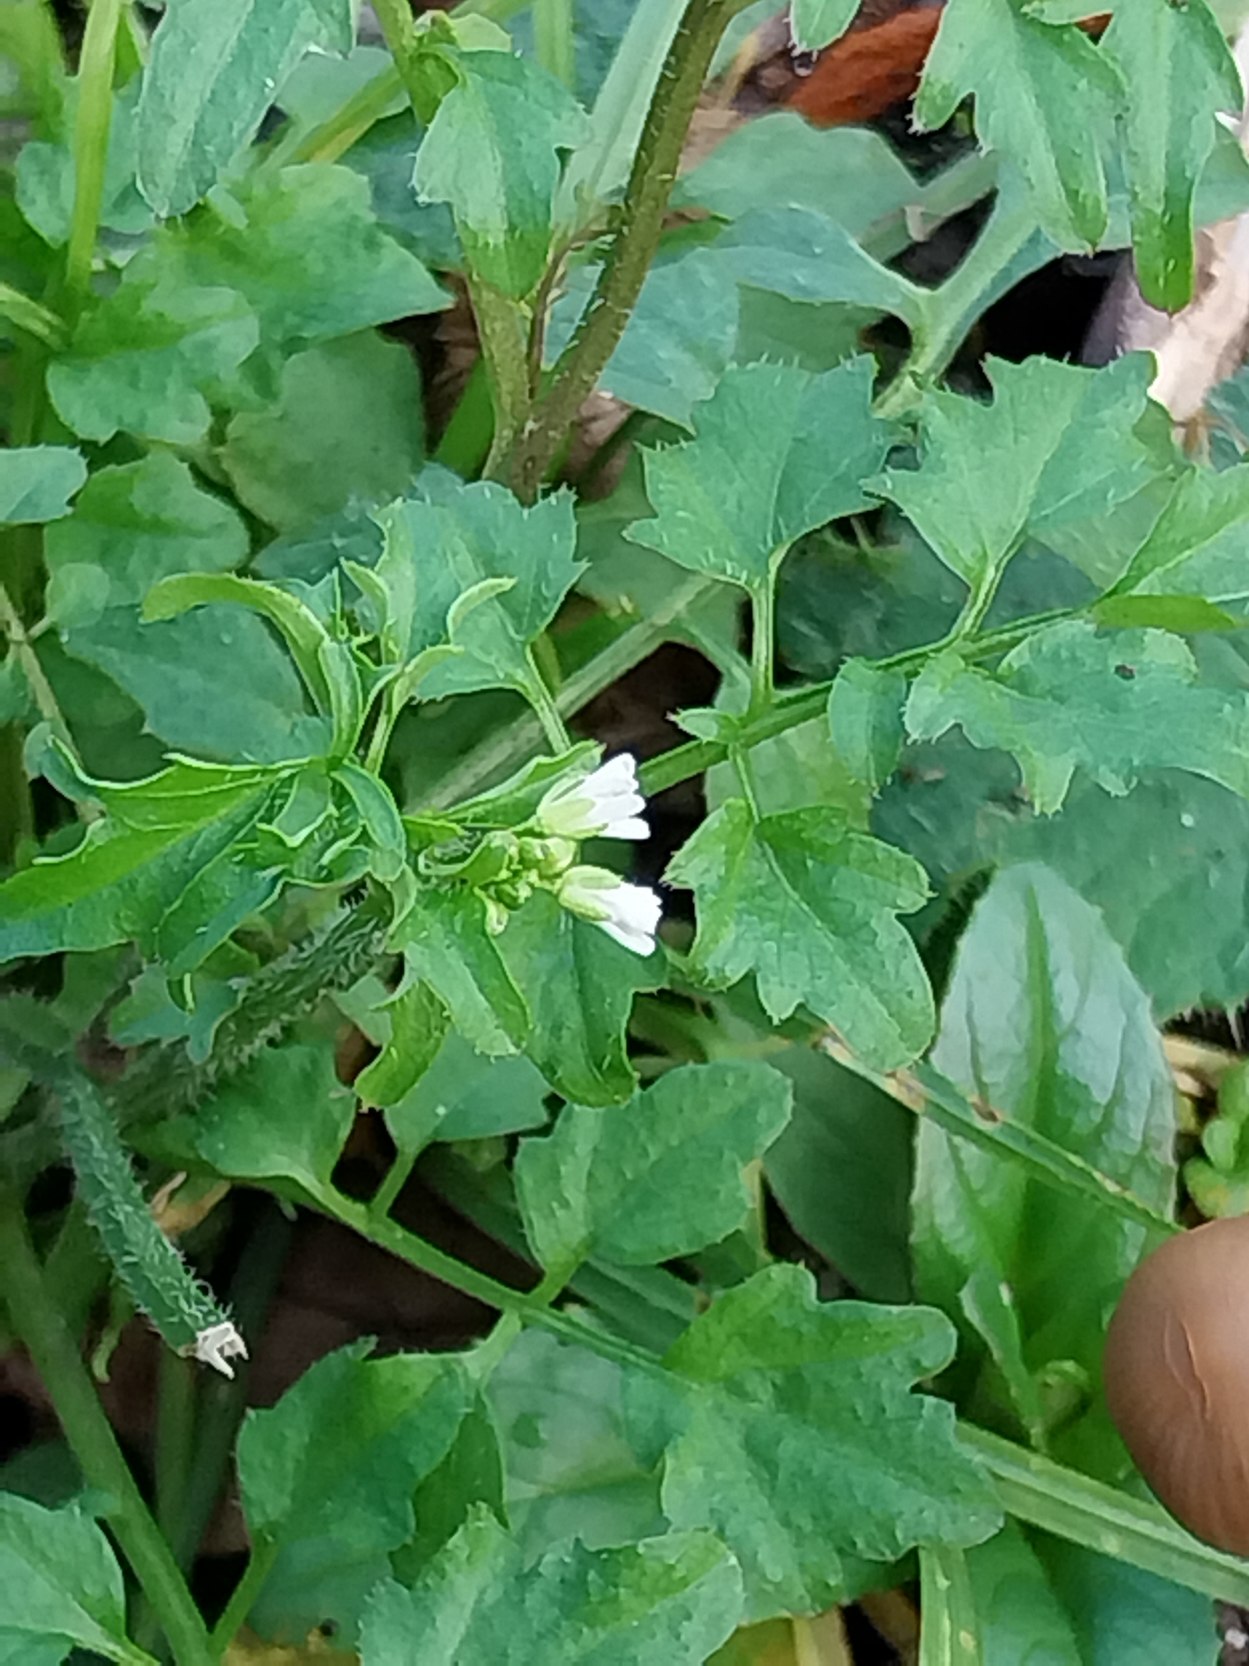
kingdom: Plantae
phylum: Tracheophyta
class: Magnoliopsida
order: Fagales
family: Betulaceae
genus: Alnus
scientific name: Alnus glutinosa
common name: Rød-el
